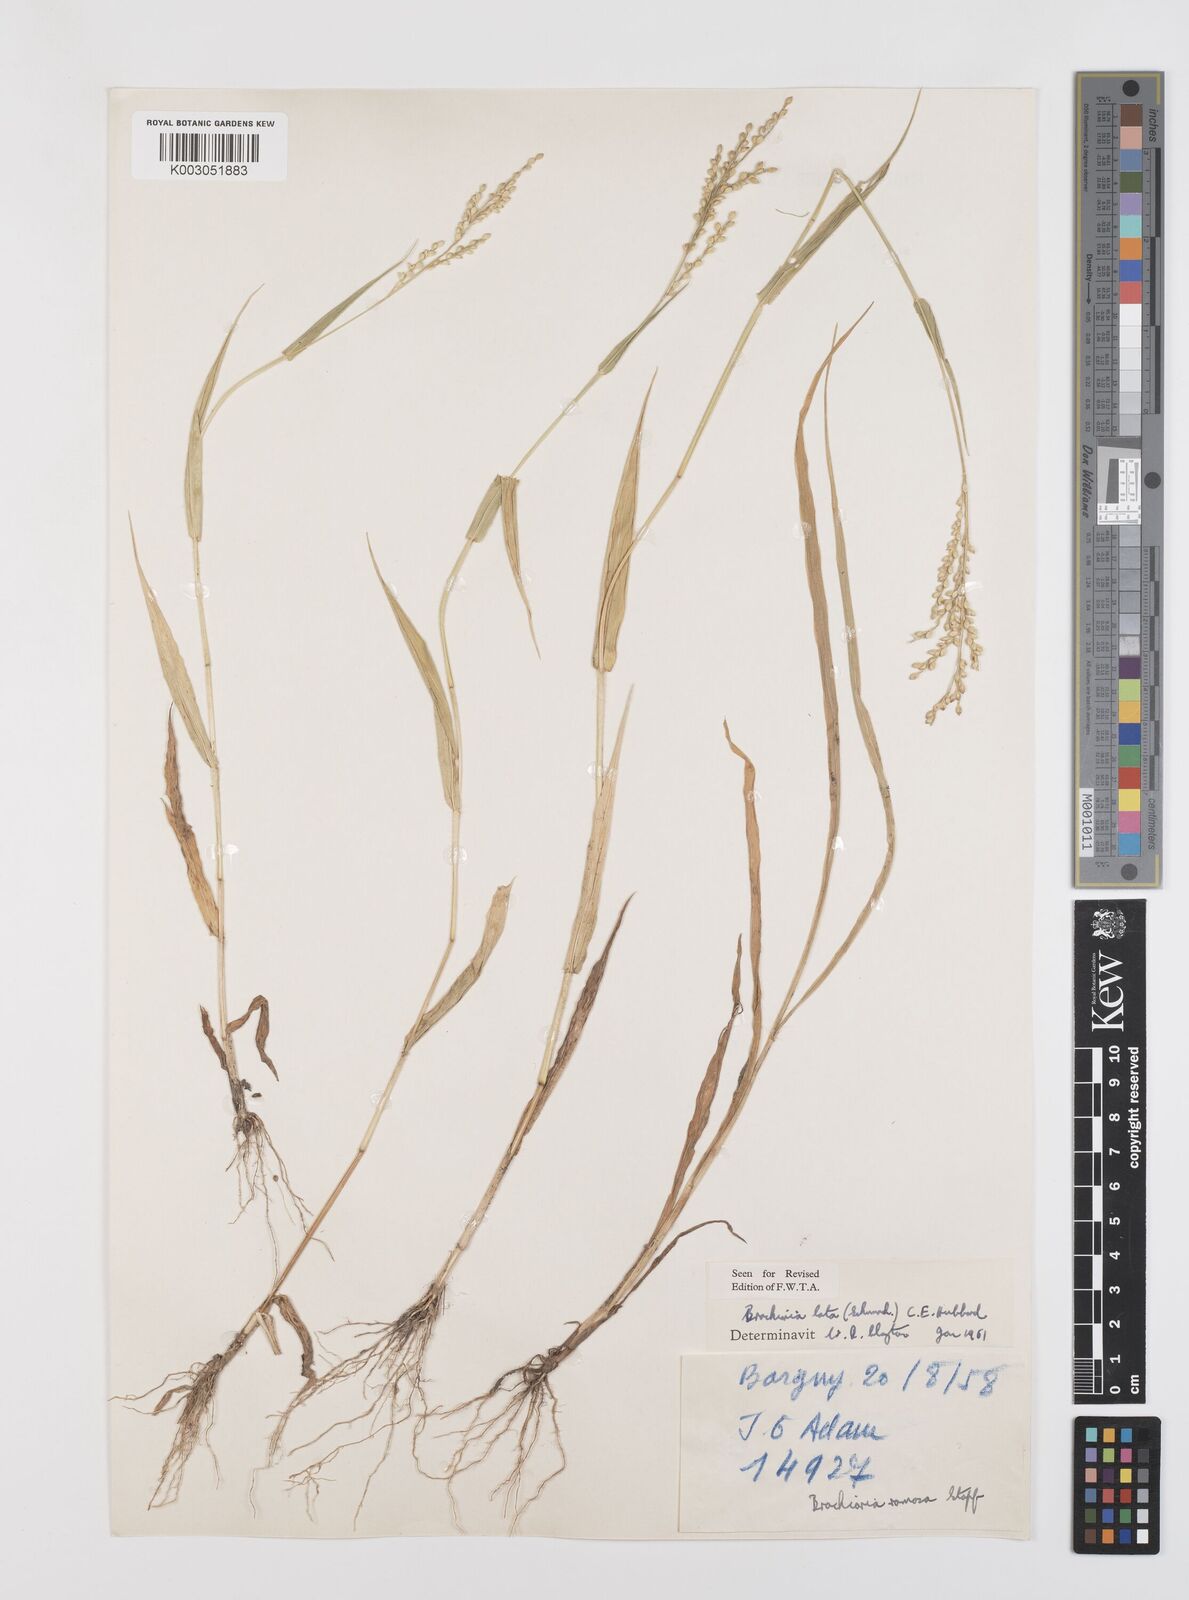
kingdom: Plantae
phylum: Tracheophyta
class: Liliopsida
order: Poales
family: Poaceae
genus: Urochloa
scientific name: Urochloa lata
